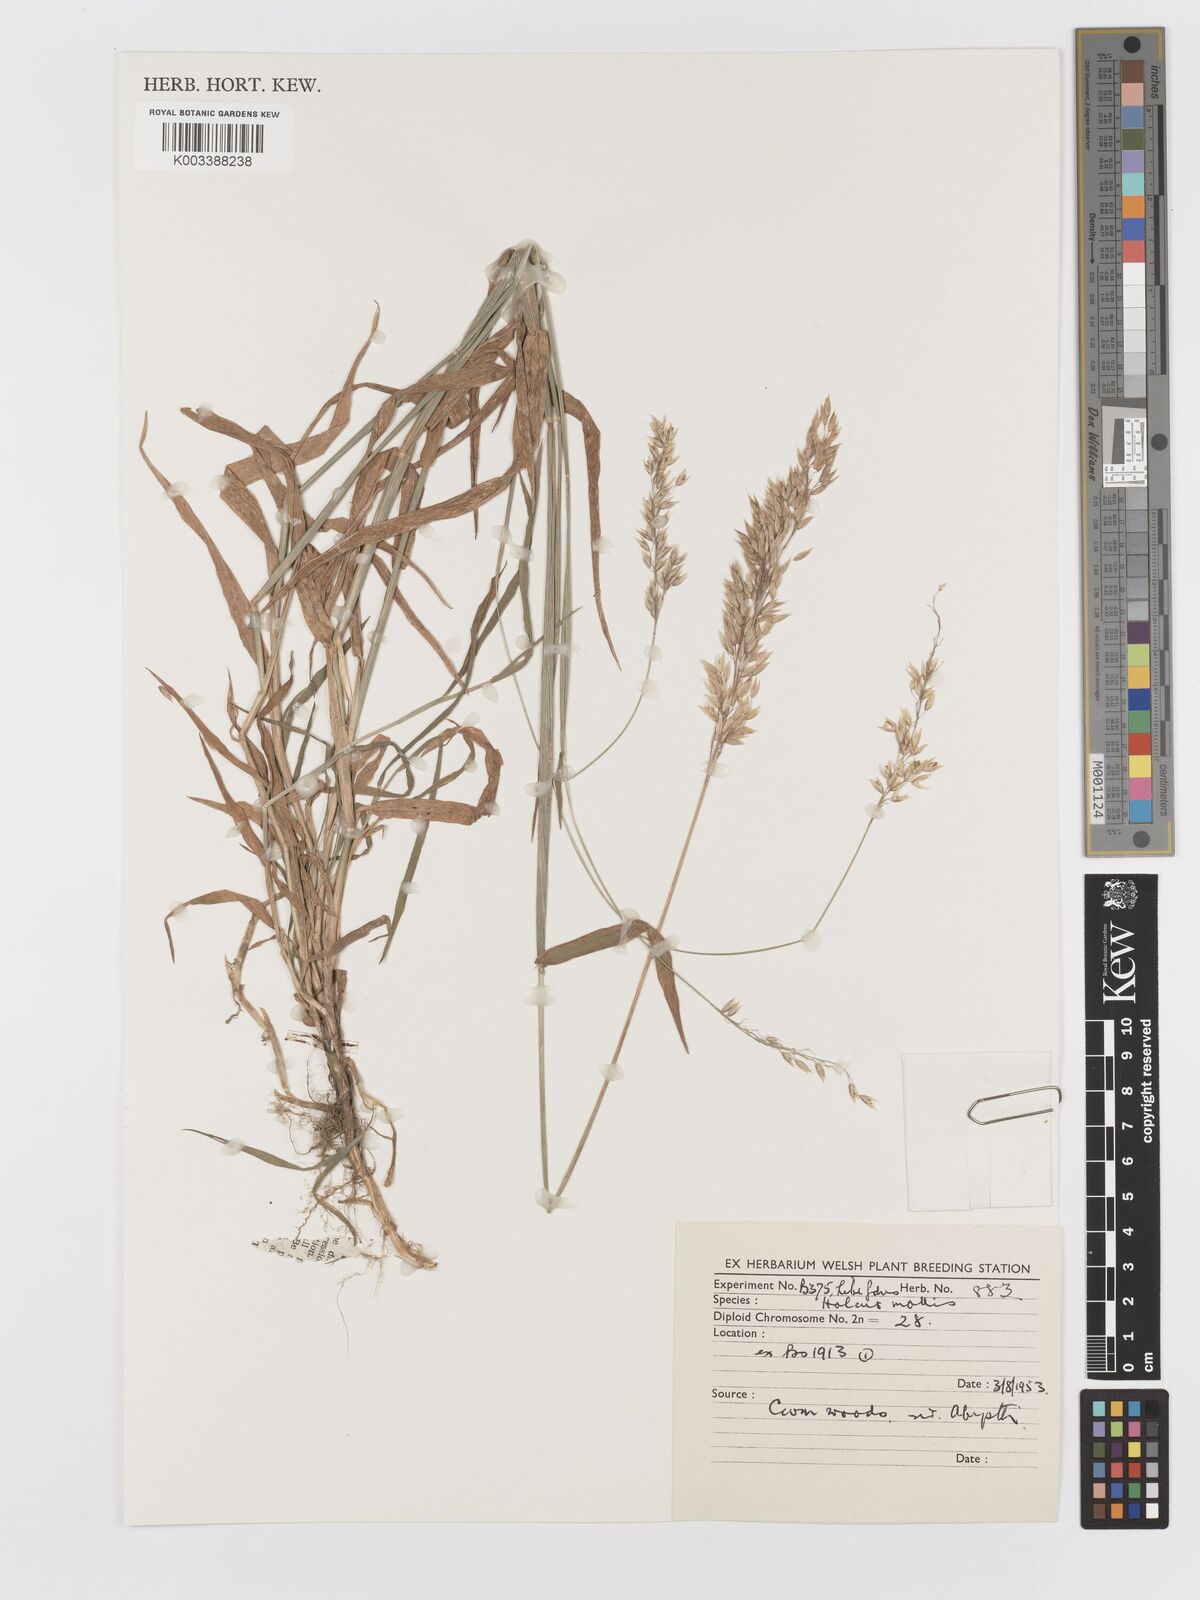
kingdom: Plantae
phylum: Tracheophyta
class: Liliopsida
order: Poales
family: Poaceae
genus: Holcus
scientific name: Holcus mollis
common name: Creeping velvetgrass
